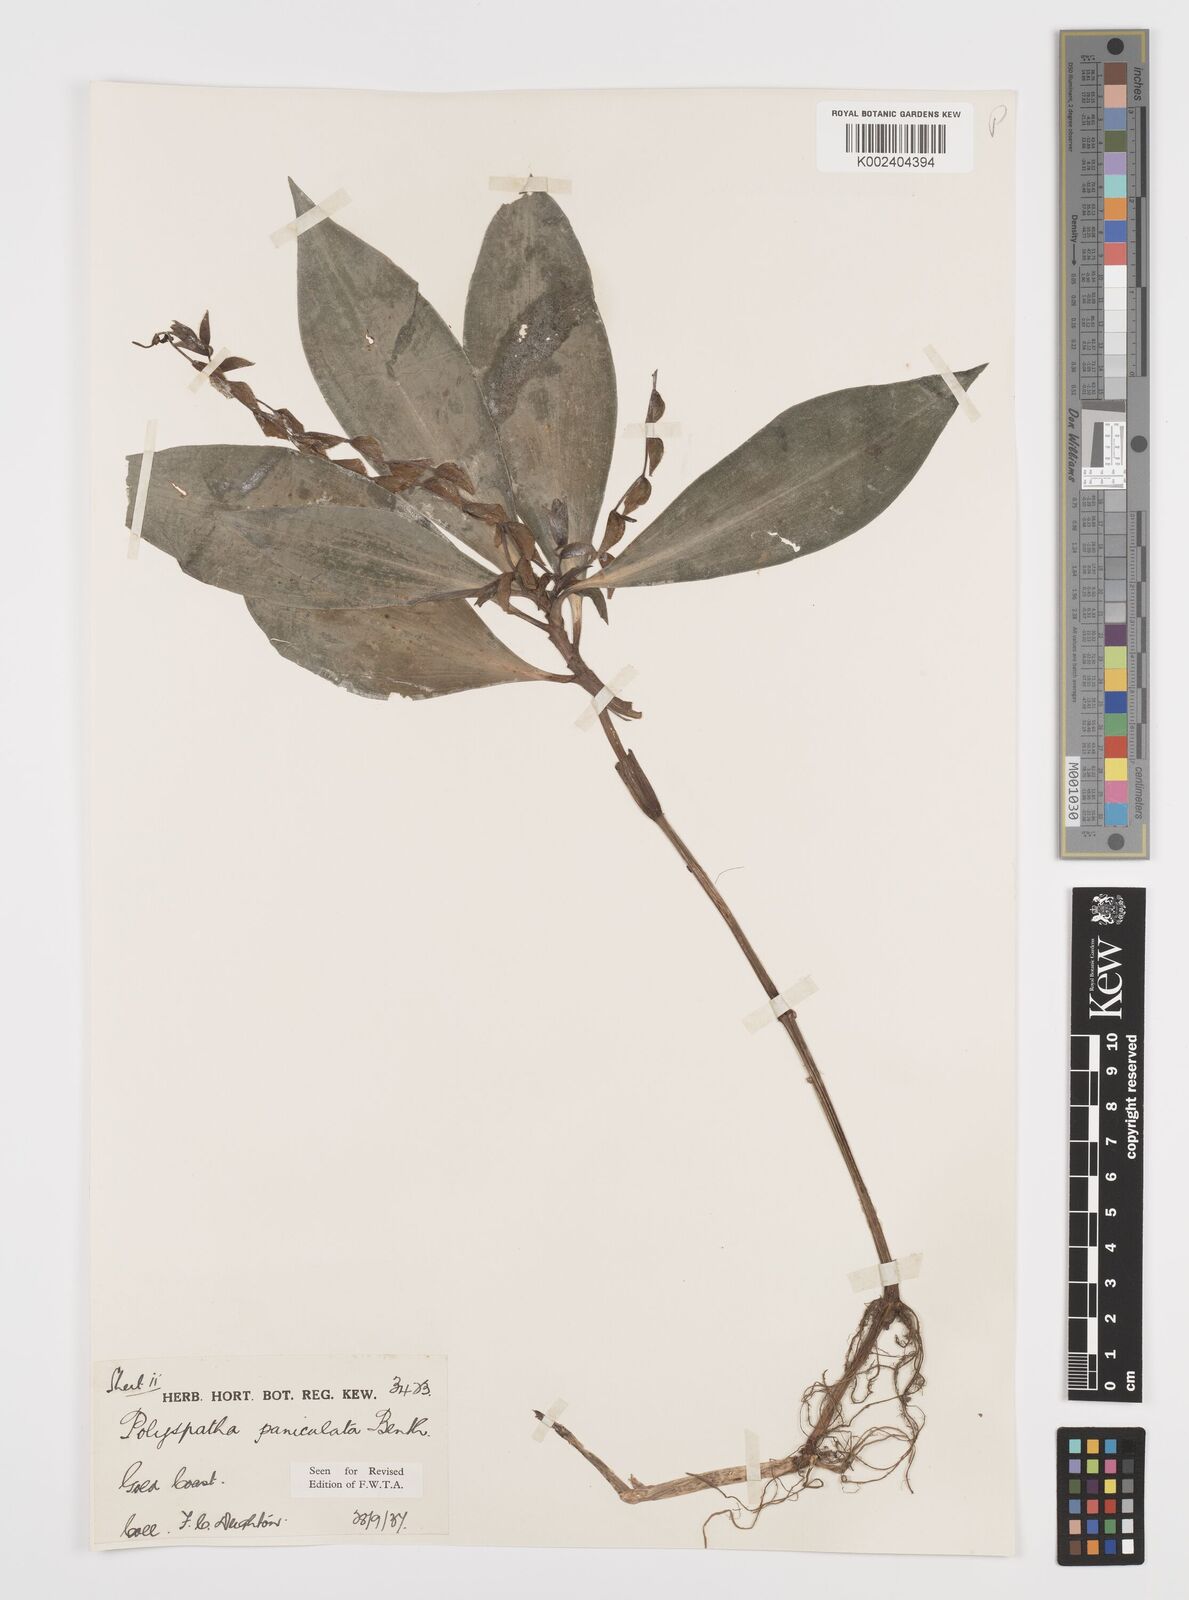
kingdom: Plantae
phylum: Tracheophyta
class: Liliopsida
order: Commelinales
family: Commelinaceae
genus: Polyspatha
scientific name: Polyspatha paniculata
